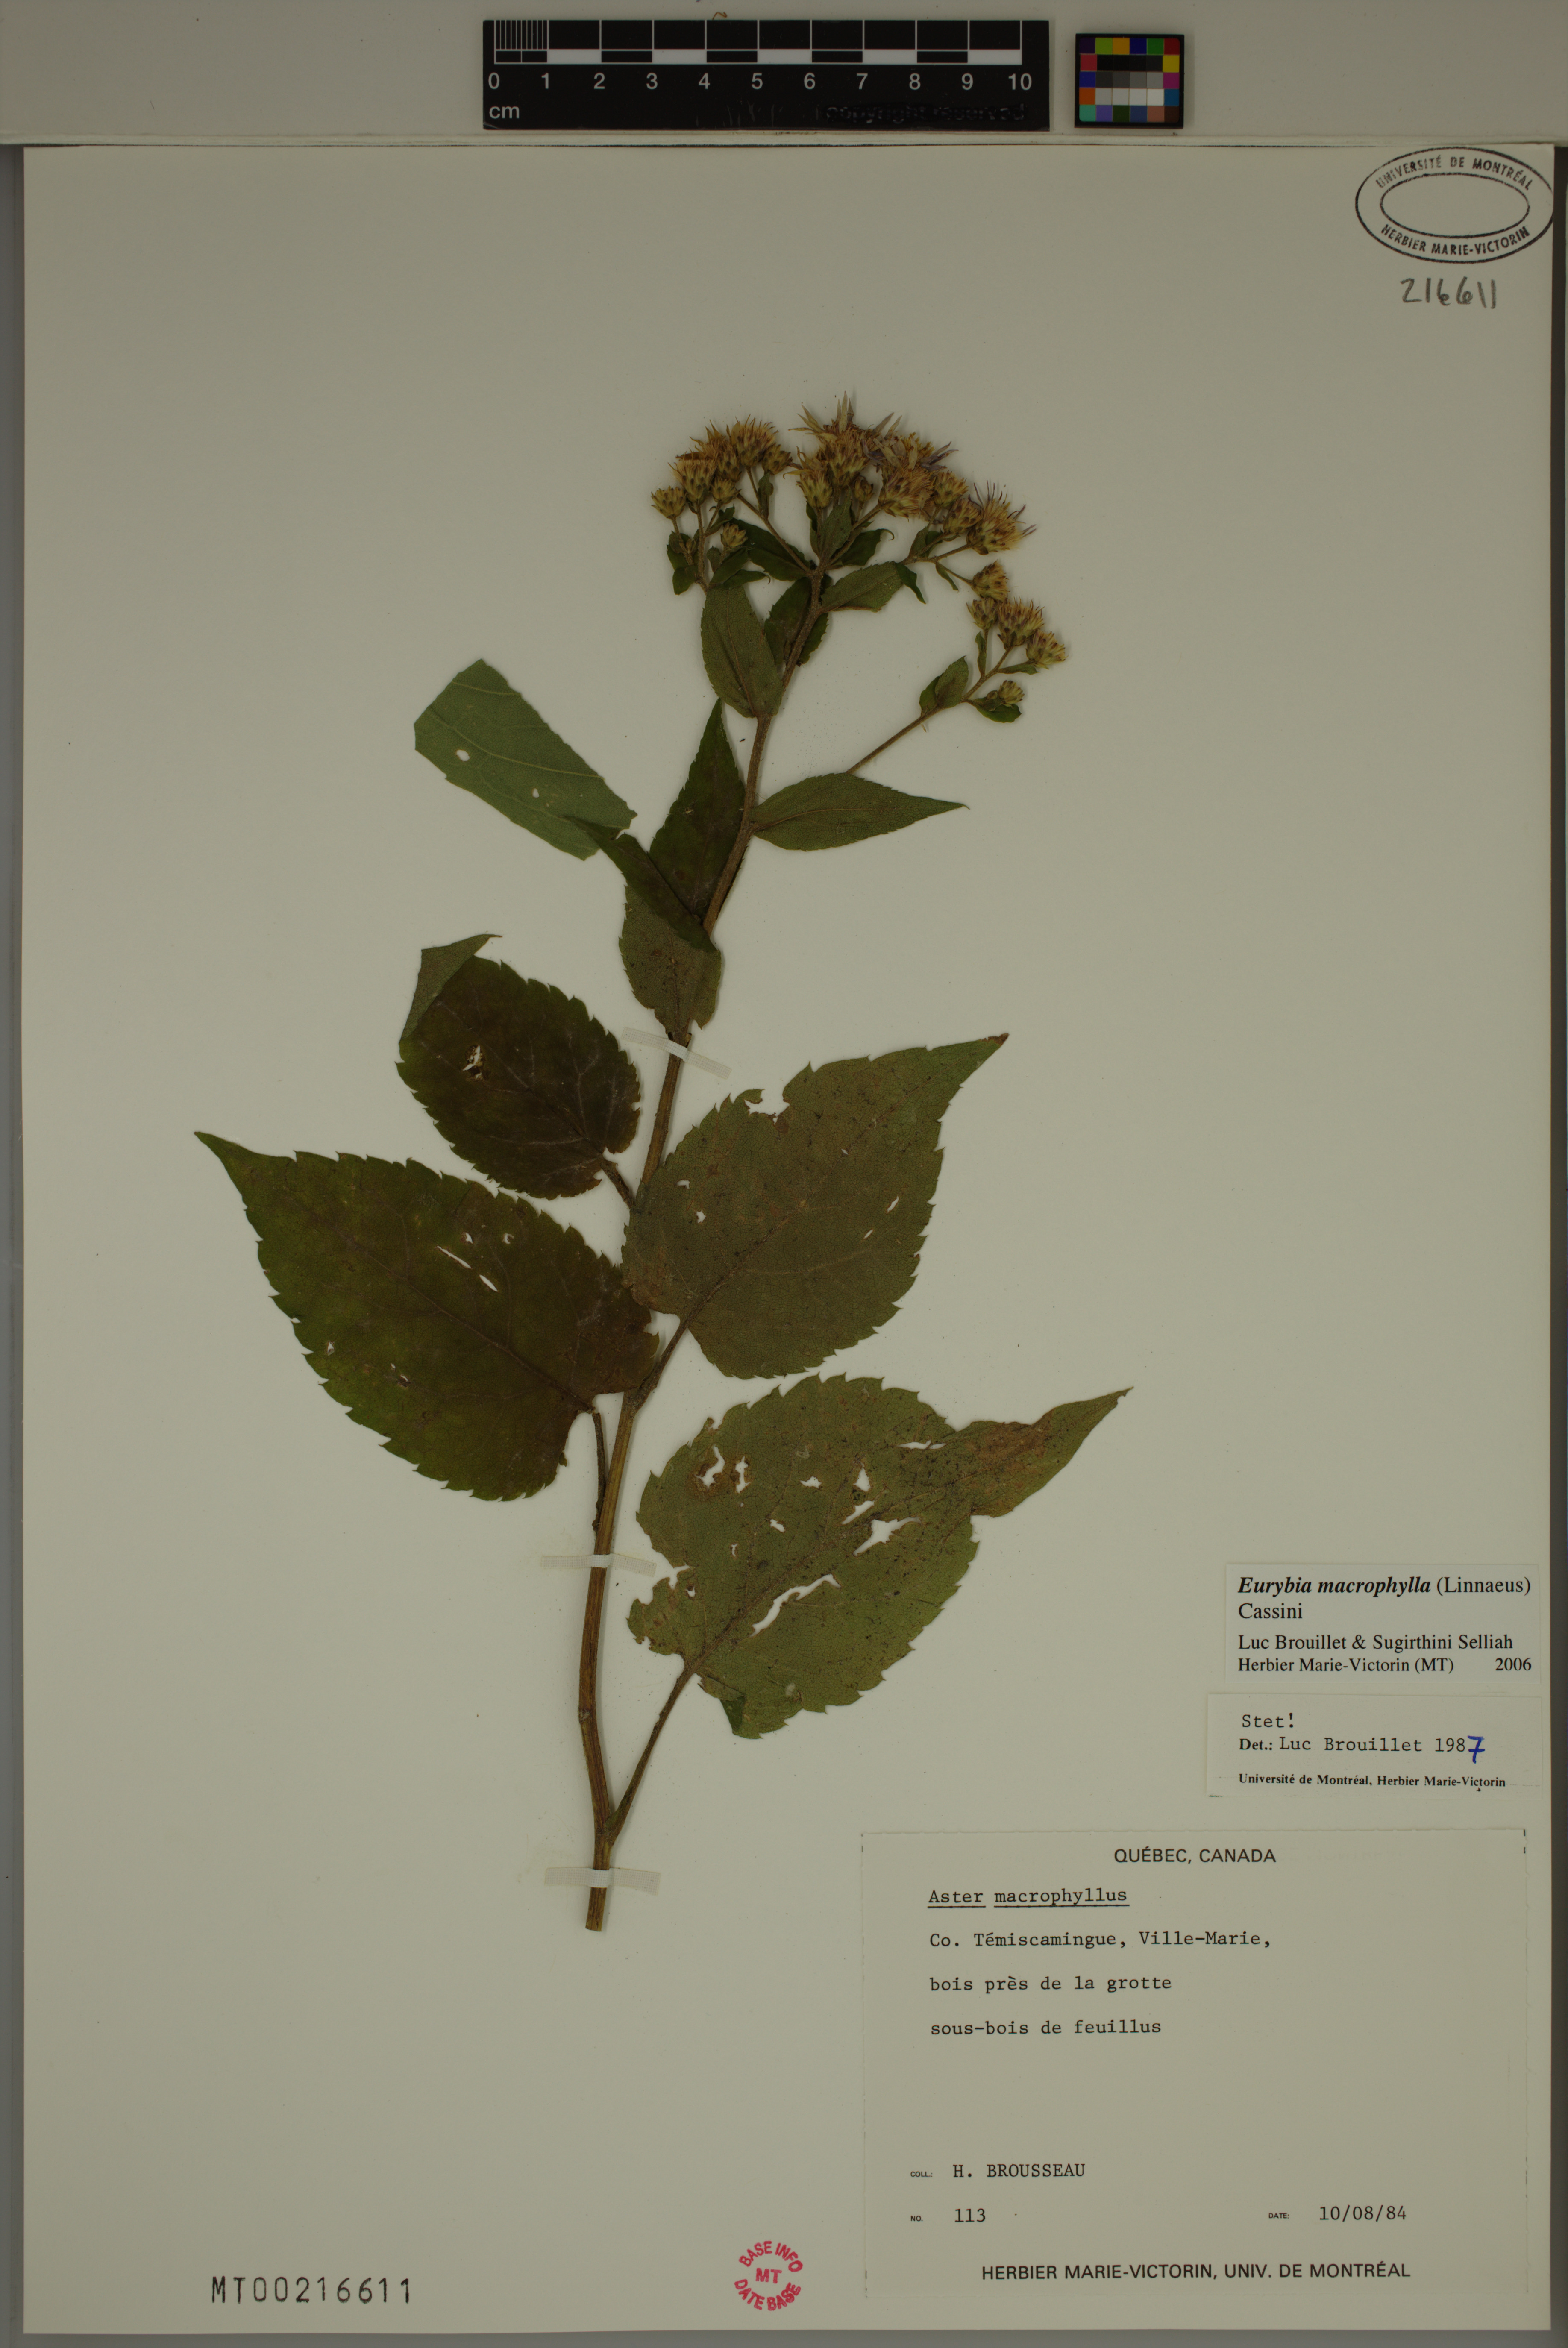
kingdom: Plantae
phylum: Tracheophyta
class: Magnoliopsida
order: Asterales
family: Asteraceae
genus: Eurybia
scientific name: Eurybia macrophylla
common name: Big-leaved aster
